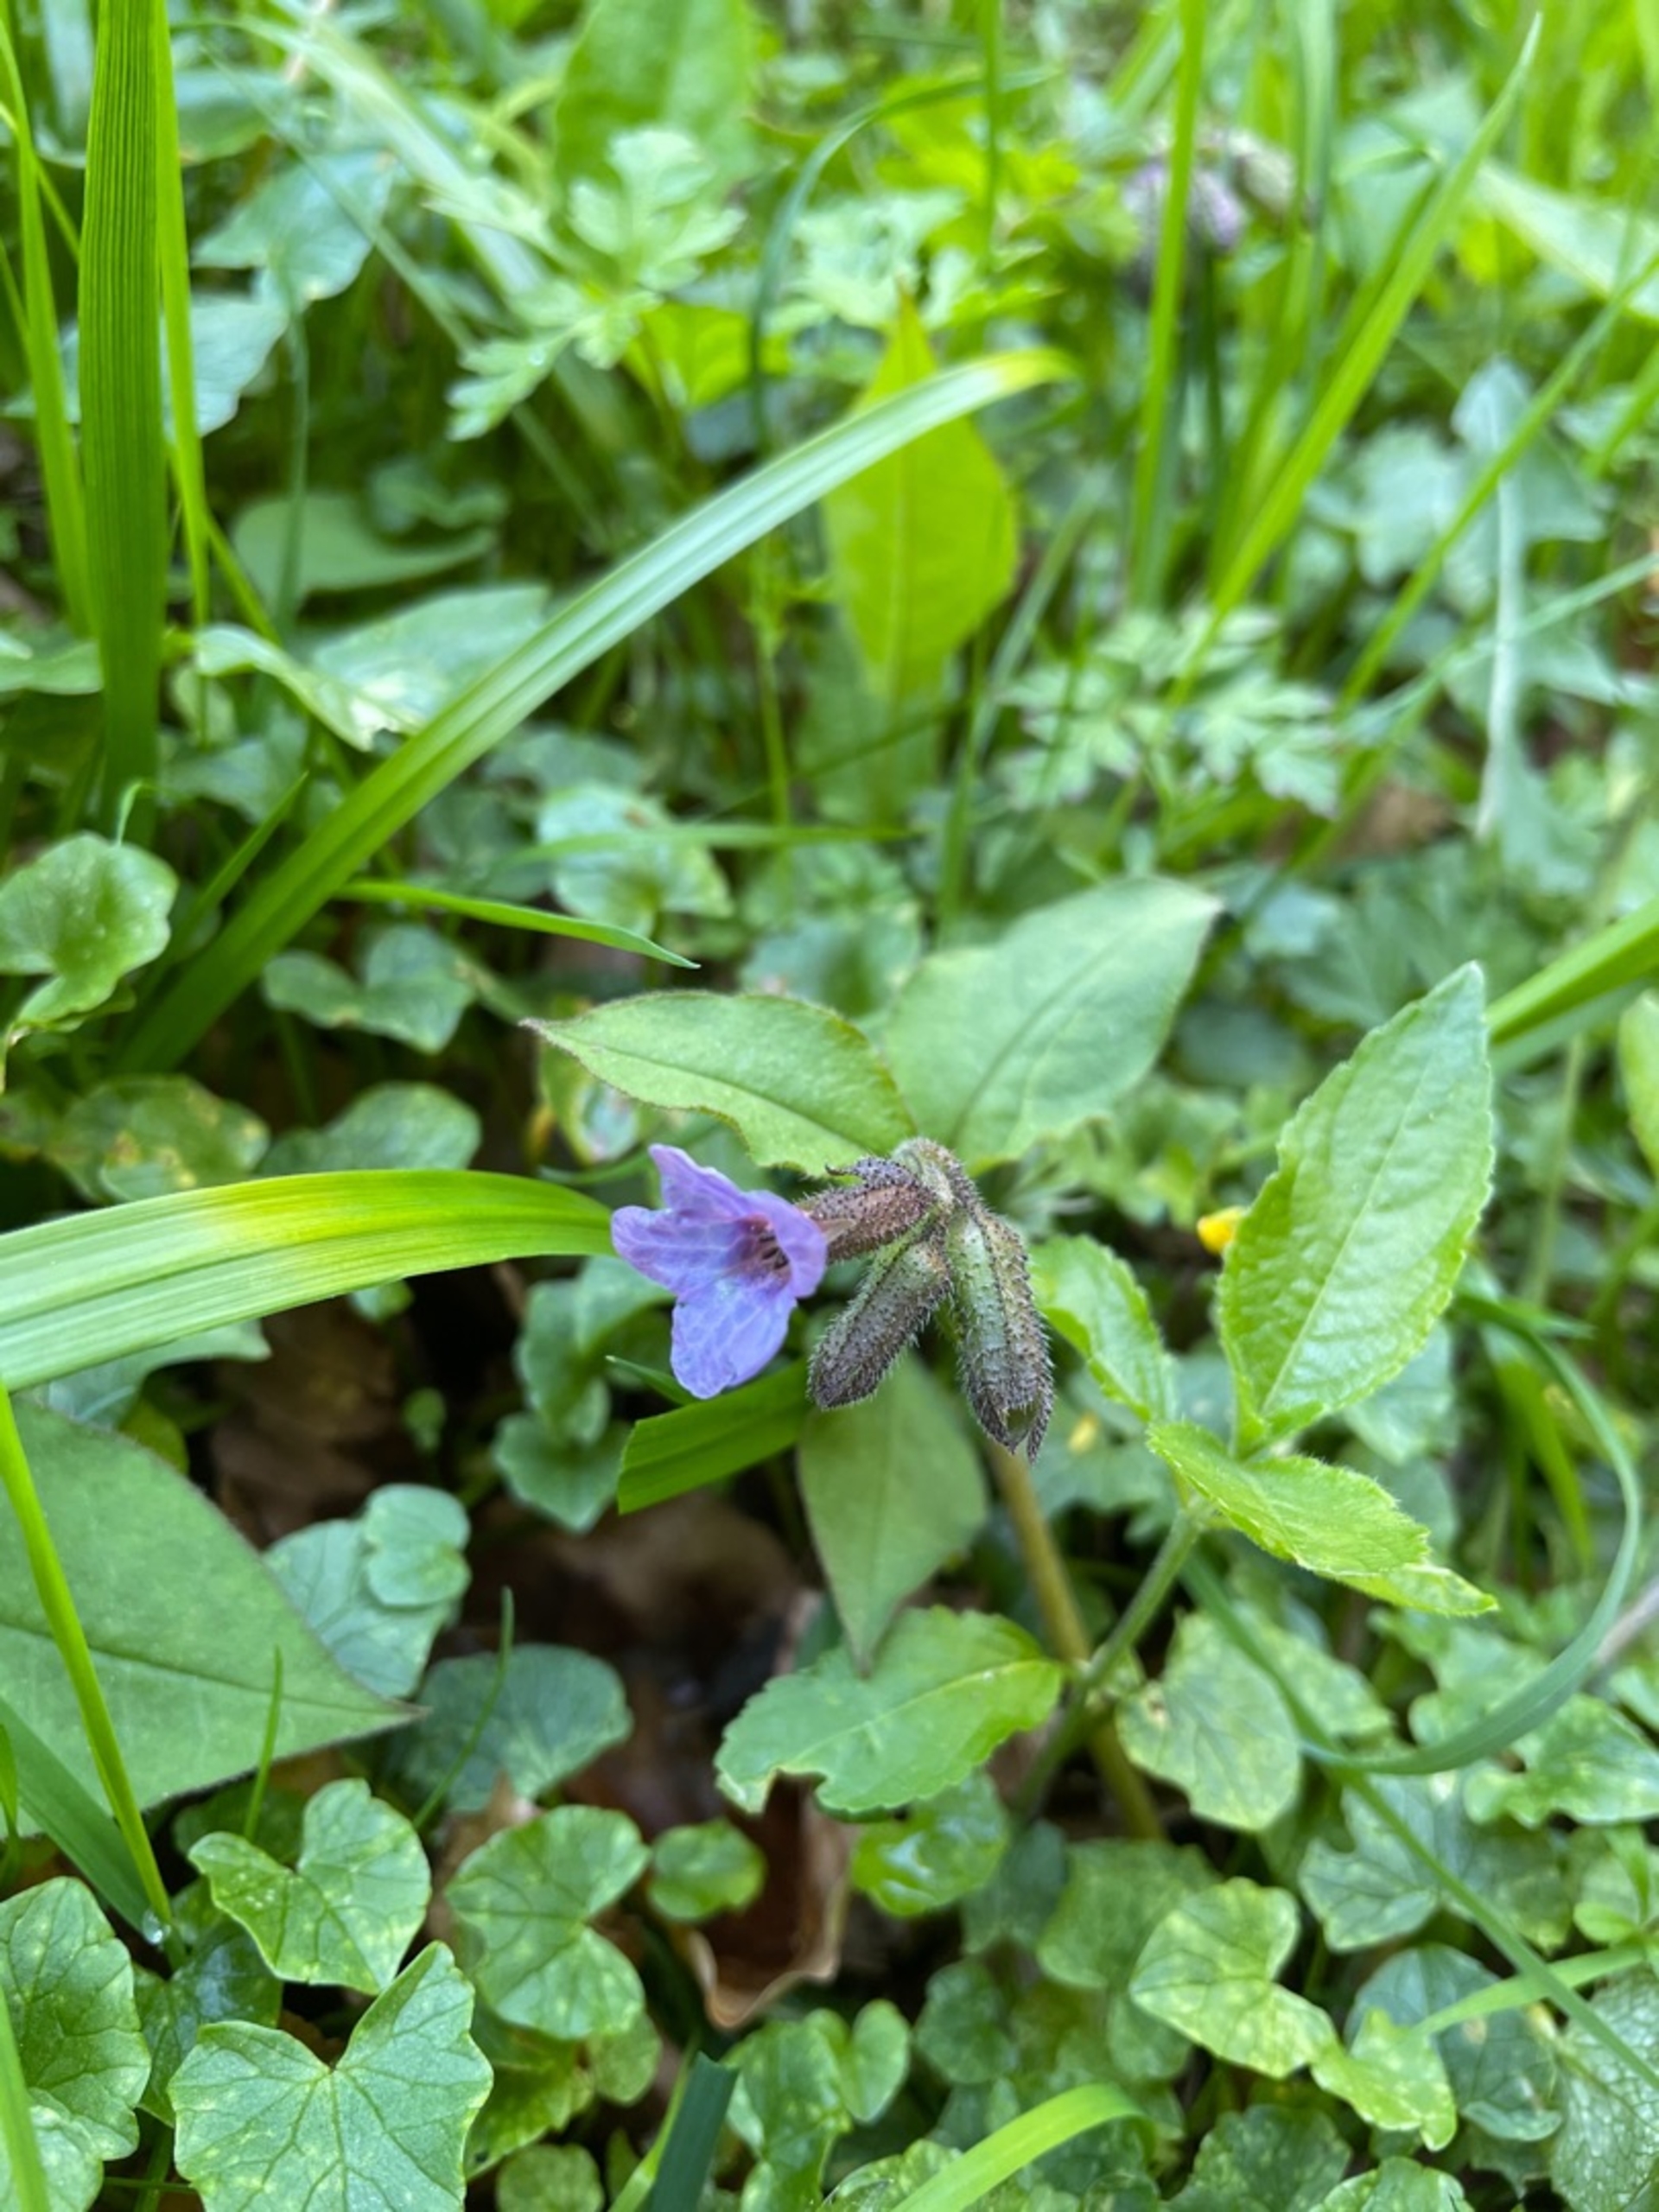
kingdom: Plantae
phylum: Tracheophyta
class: Magnoliopsida
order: Boraginales
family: Boraginaceae
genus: Pulmonaria
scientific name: Pulmonaria obscura
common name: Almindelig lungeurt
